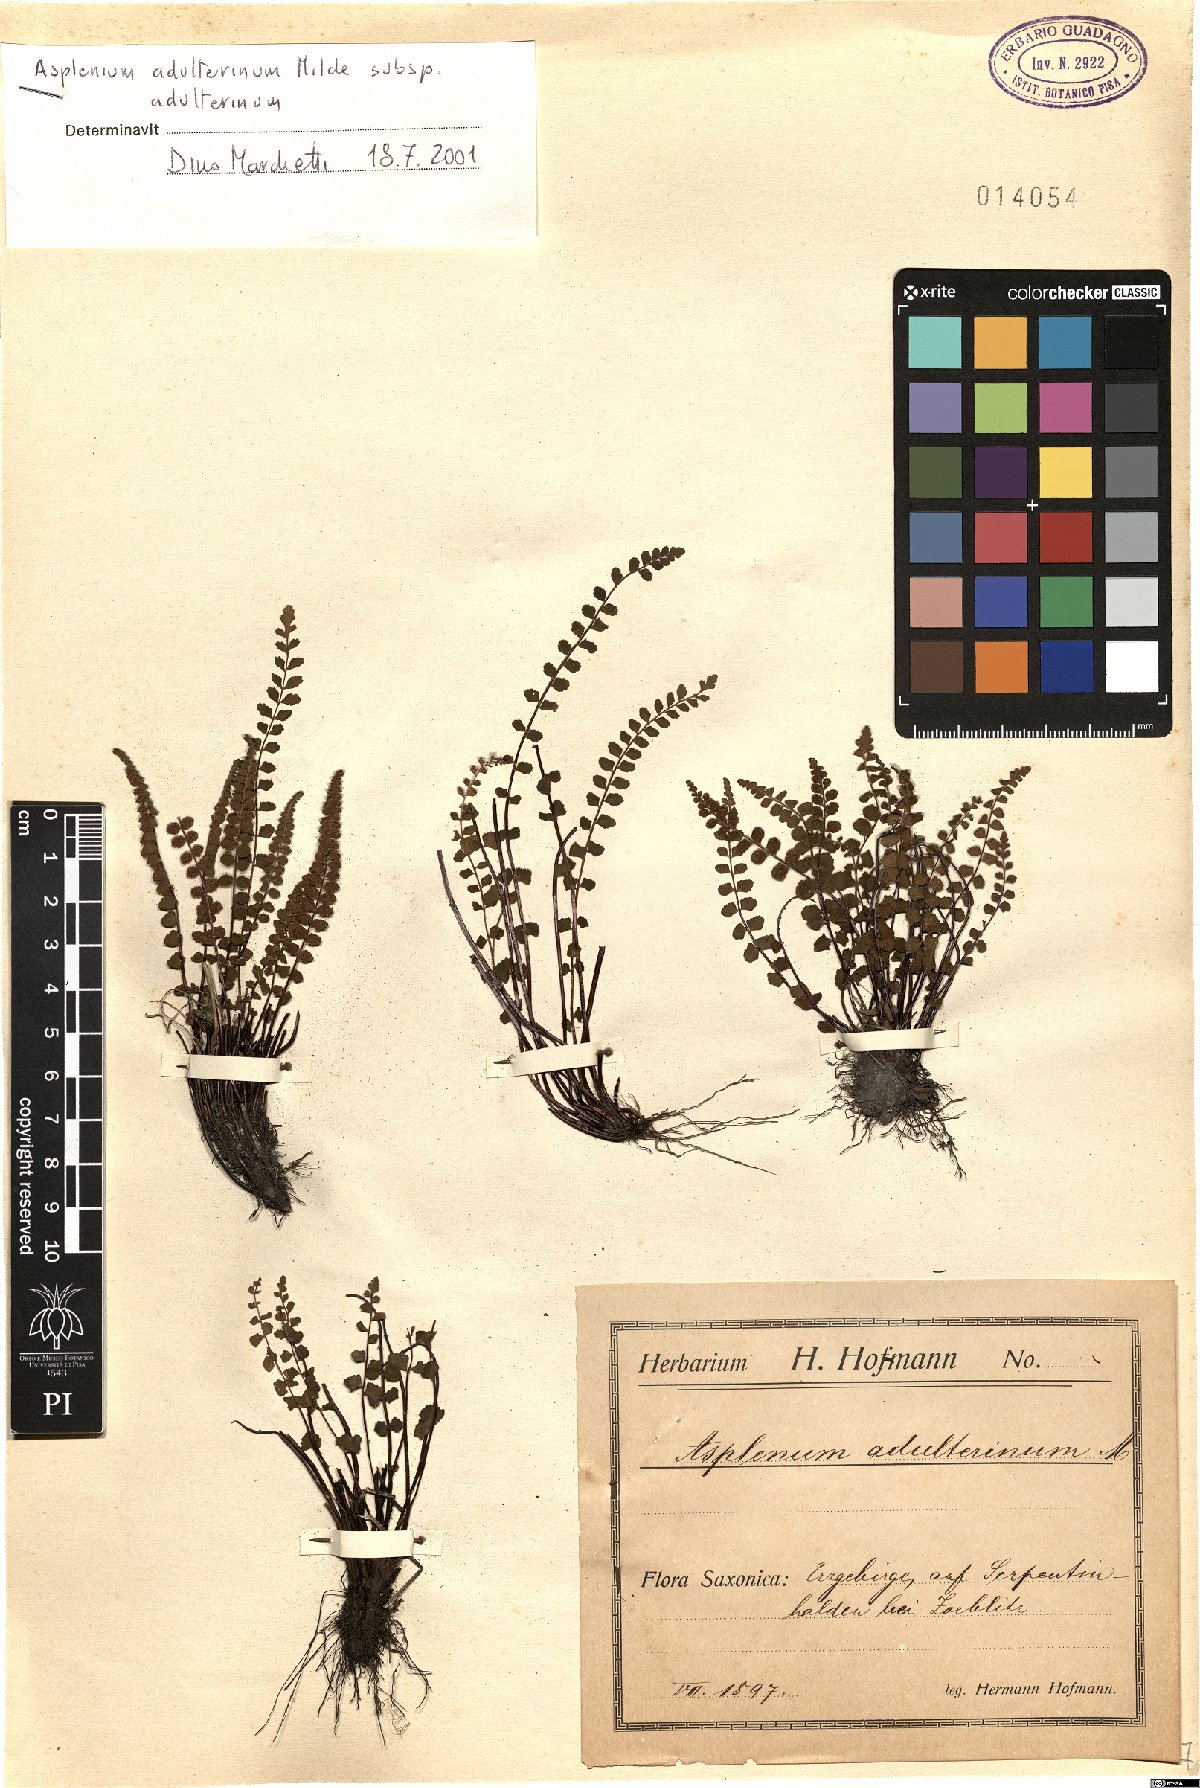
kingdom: Plantae
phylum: Tracheophyta
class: Polypodiopsida
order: Polypodiales
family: Aspleniaceae
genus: Asplenium
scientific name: Asplenium adulterinum
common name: Adulterated spleenwort
